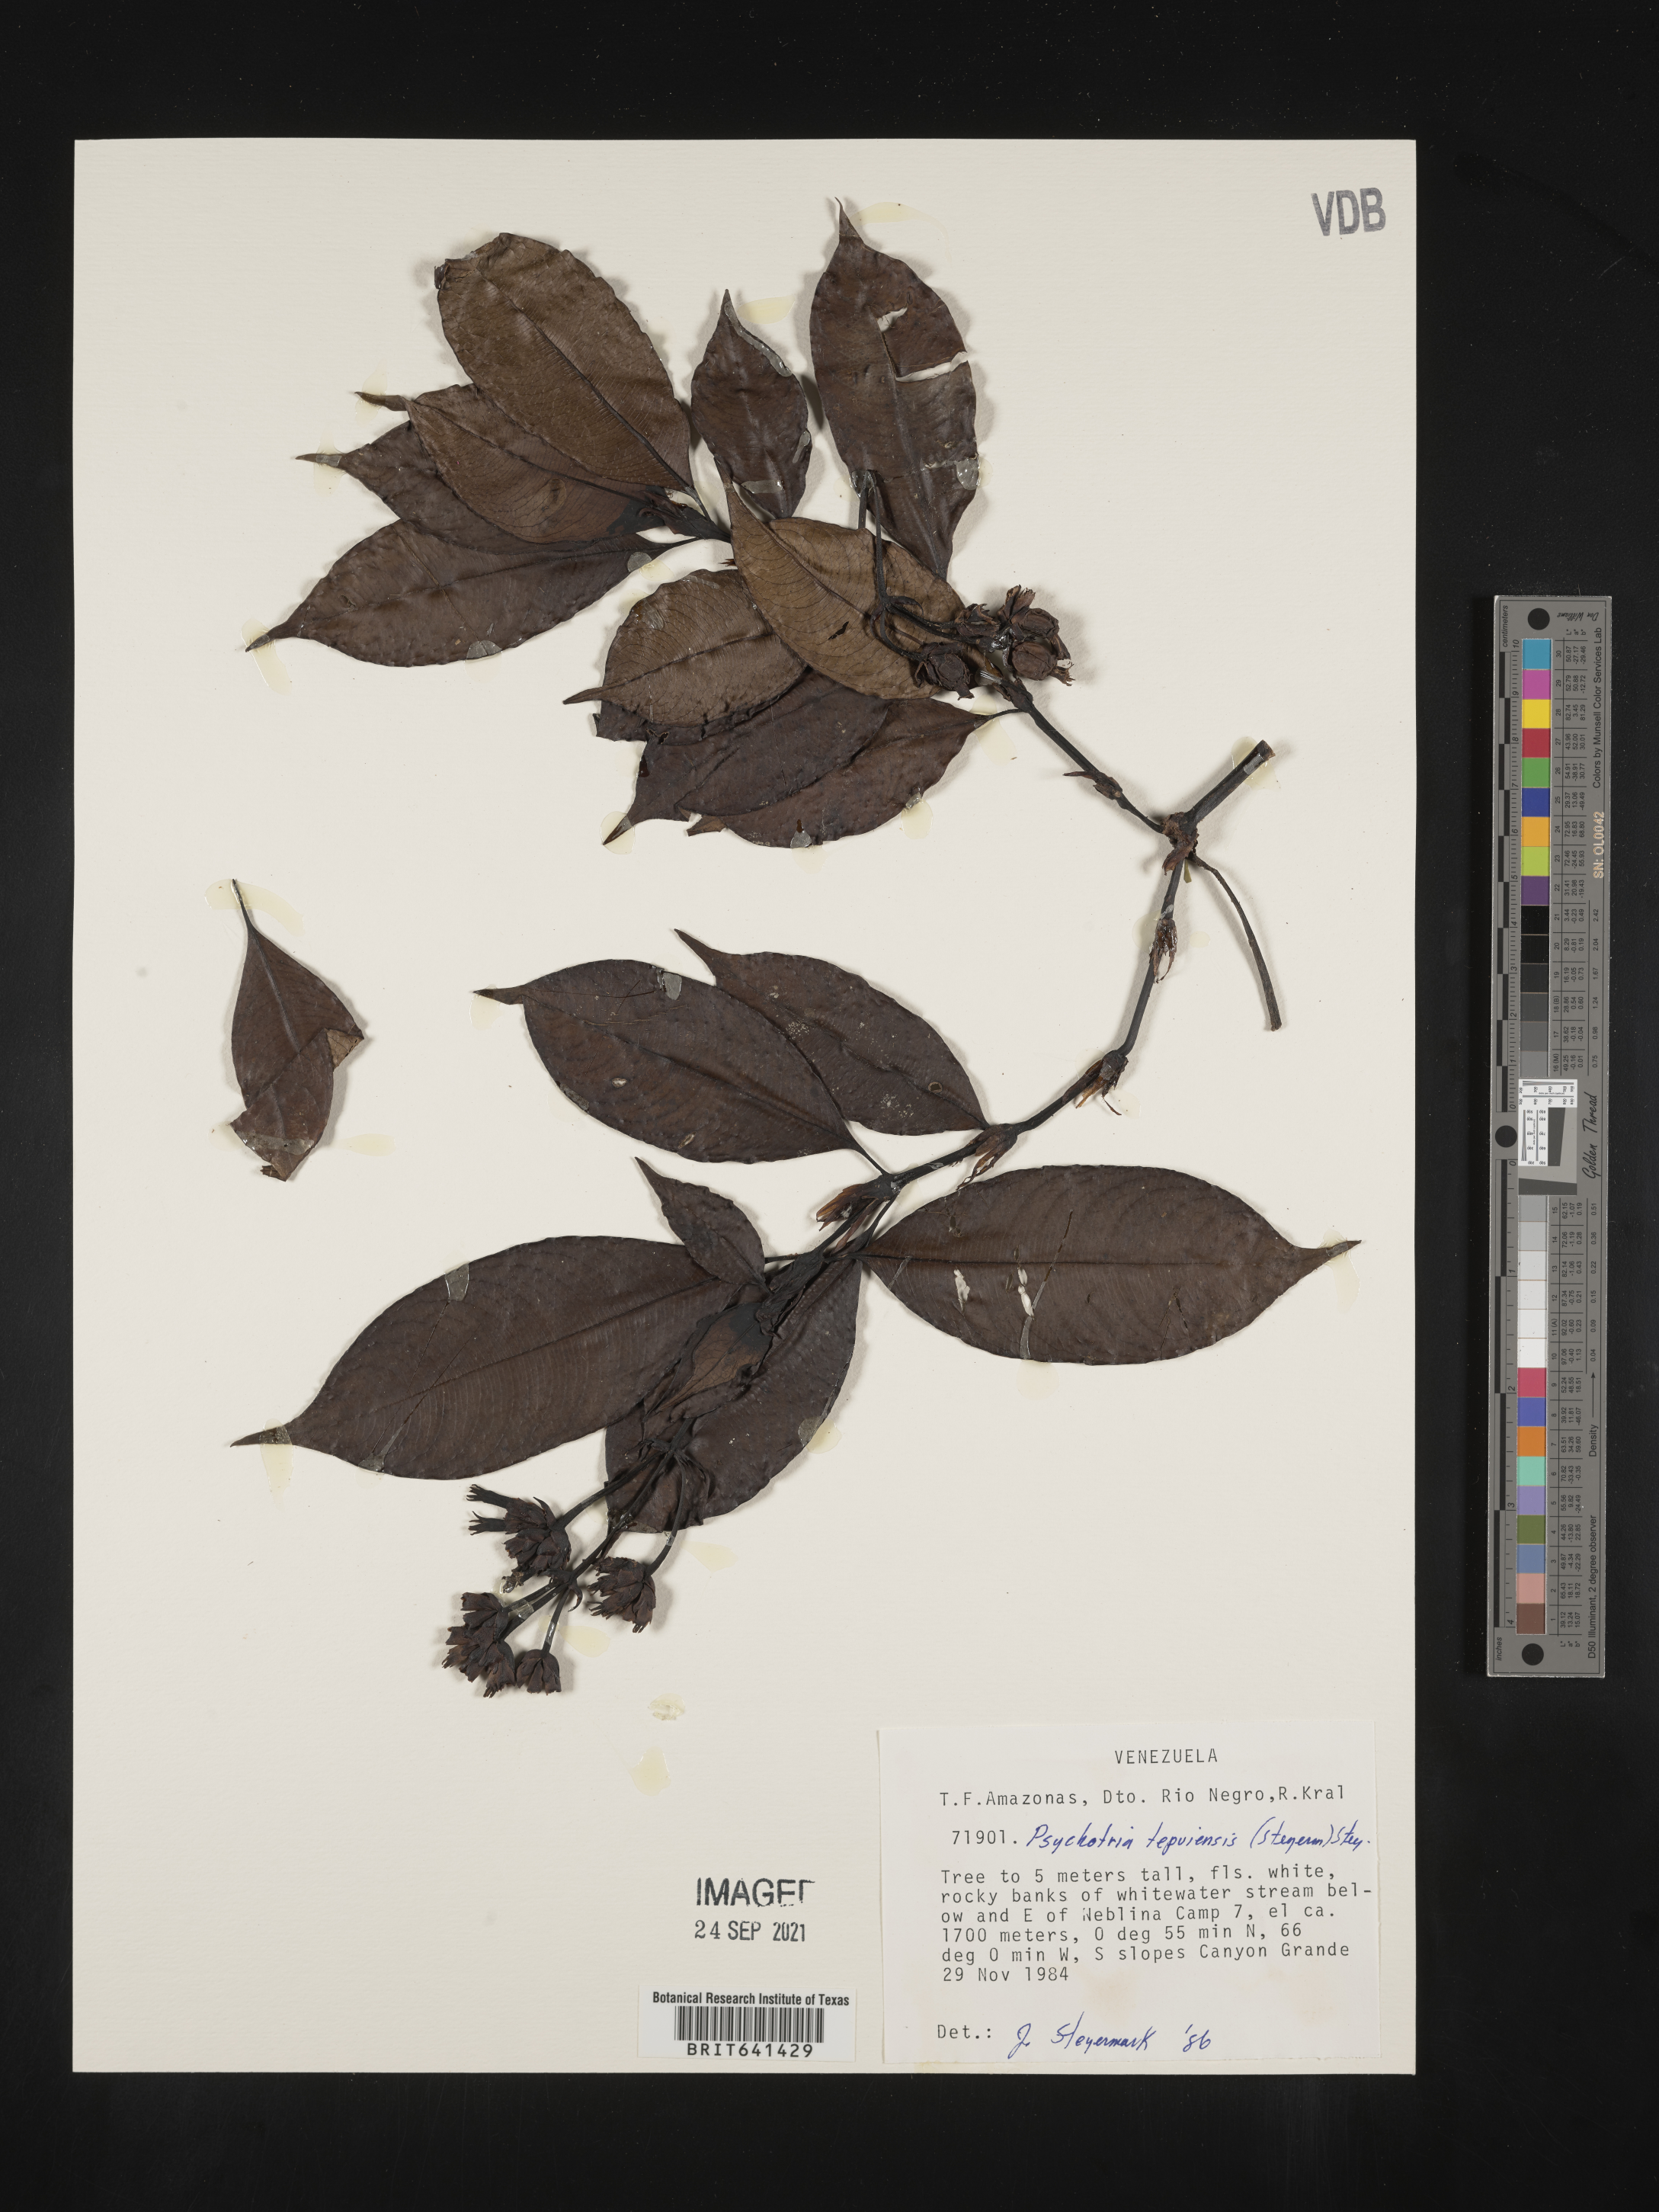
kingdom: Plantae
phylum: Tracheophyta
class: Magnoliopsida
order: Gentianales
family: Rubiaceae
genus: Psychotria
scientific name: Psychotria
